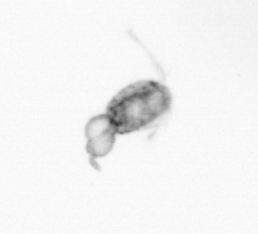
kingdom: Animalia
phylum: Arthropoda
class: Copepoda
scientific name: Copepoda
